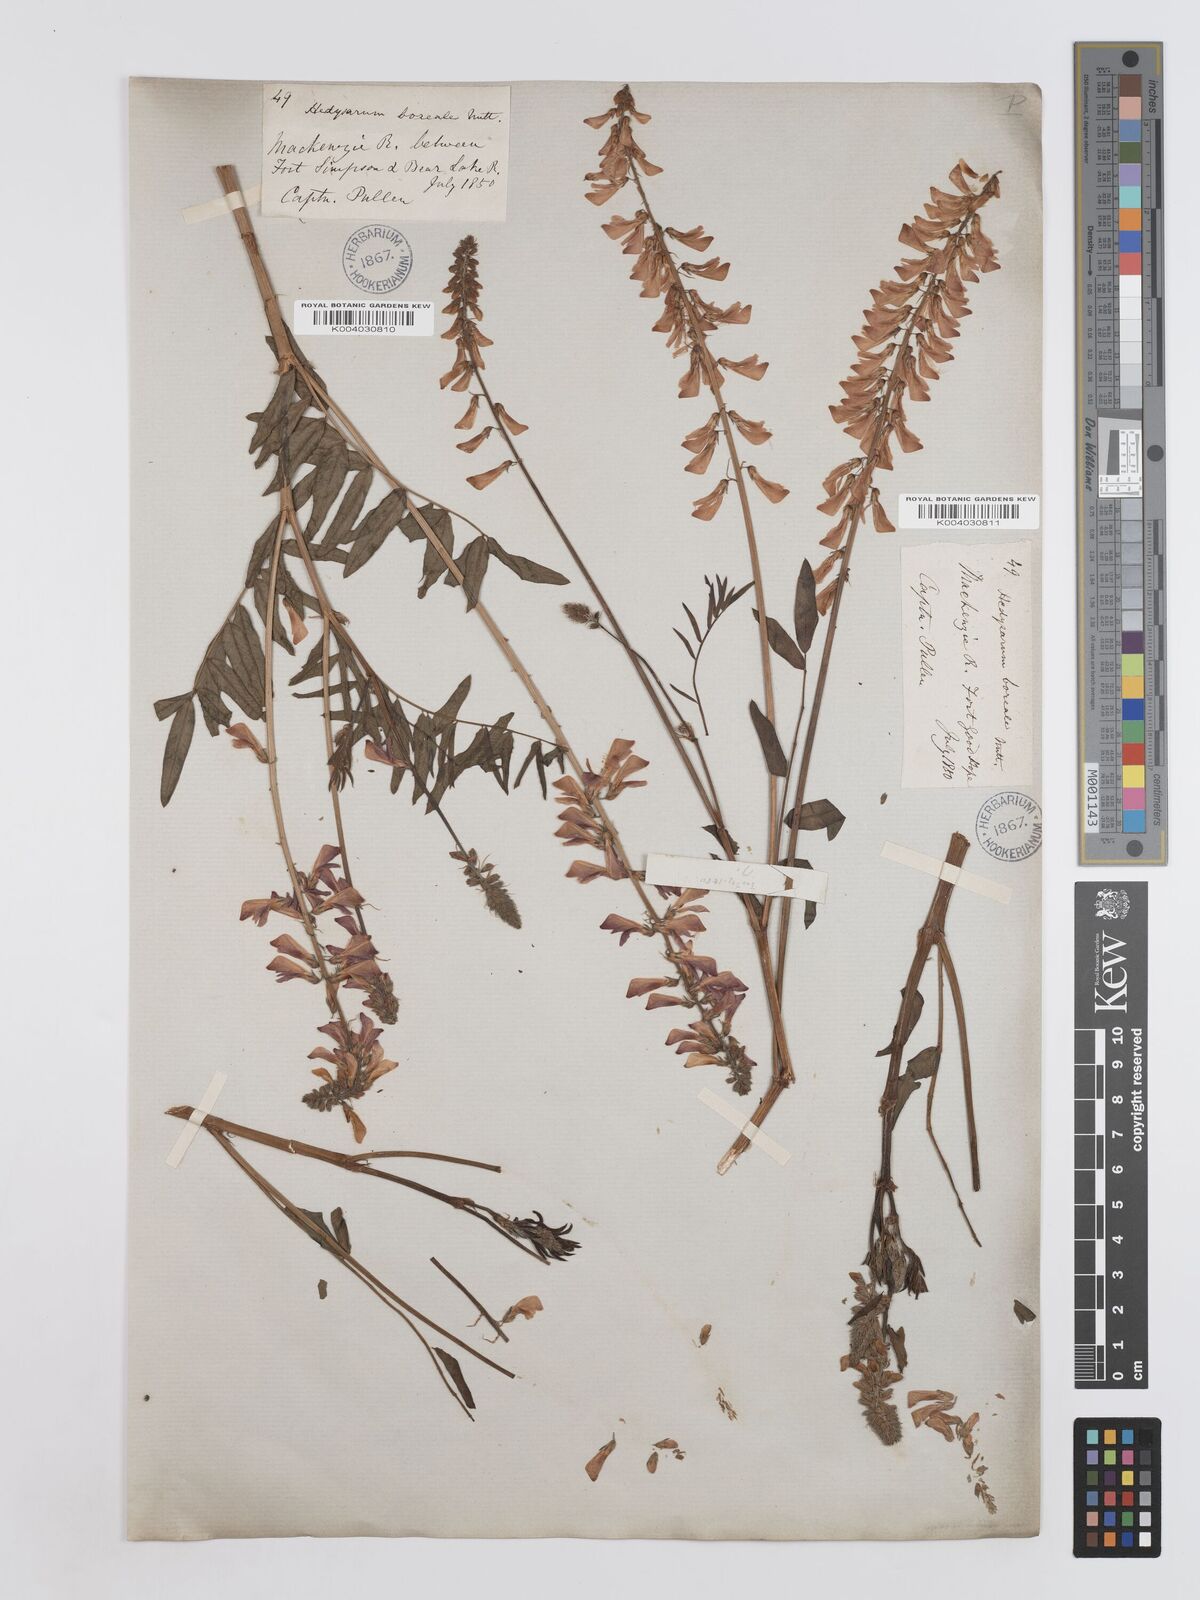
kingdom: Plantae
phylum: Tracheophyta
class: Magnoliopsida
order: Fabales
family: Fabaceae
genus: Hedysarum
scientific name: Hedysarum boreale
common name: Northern sweet-vetch
